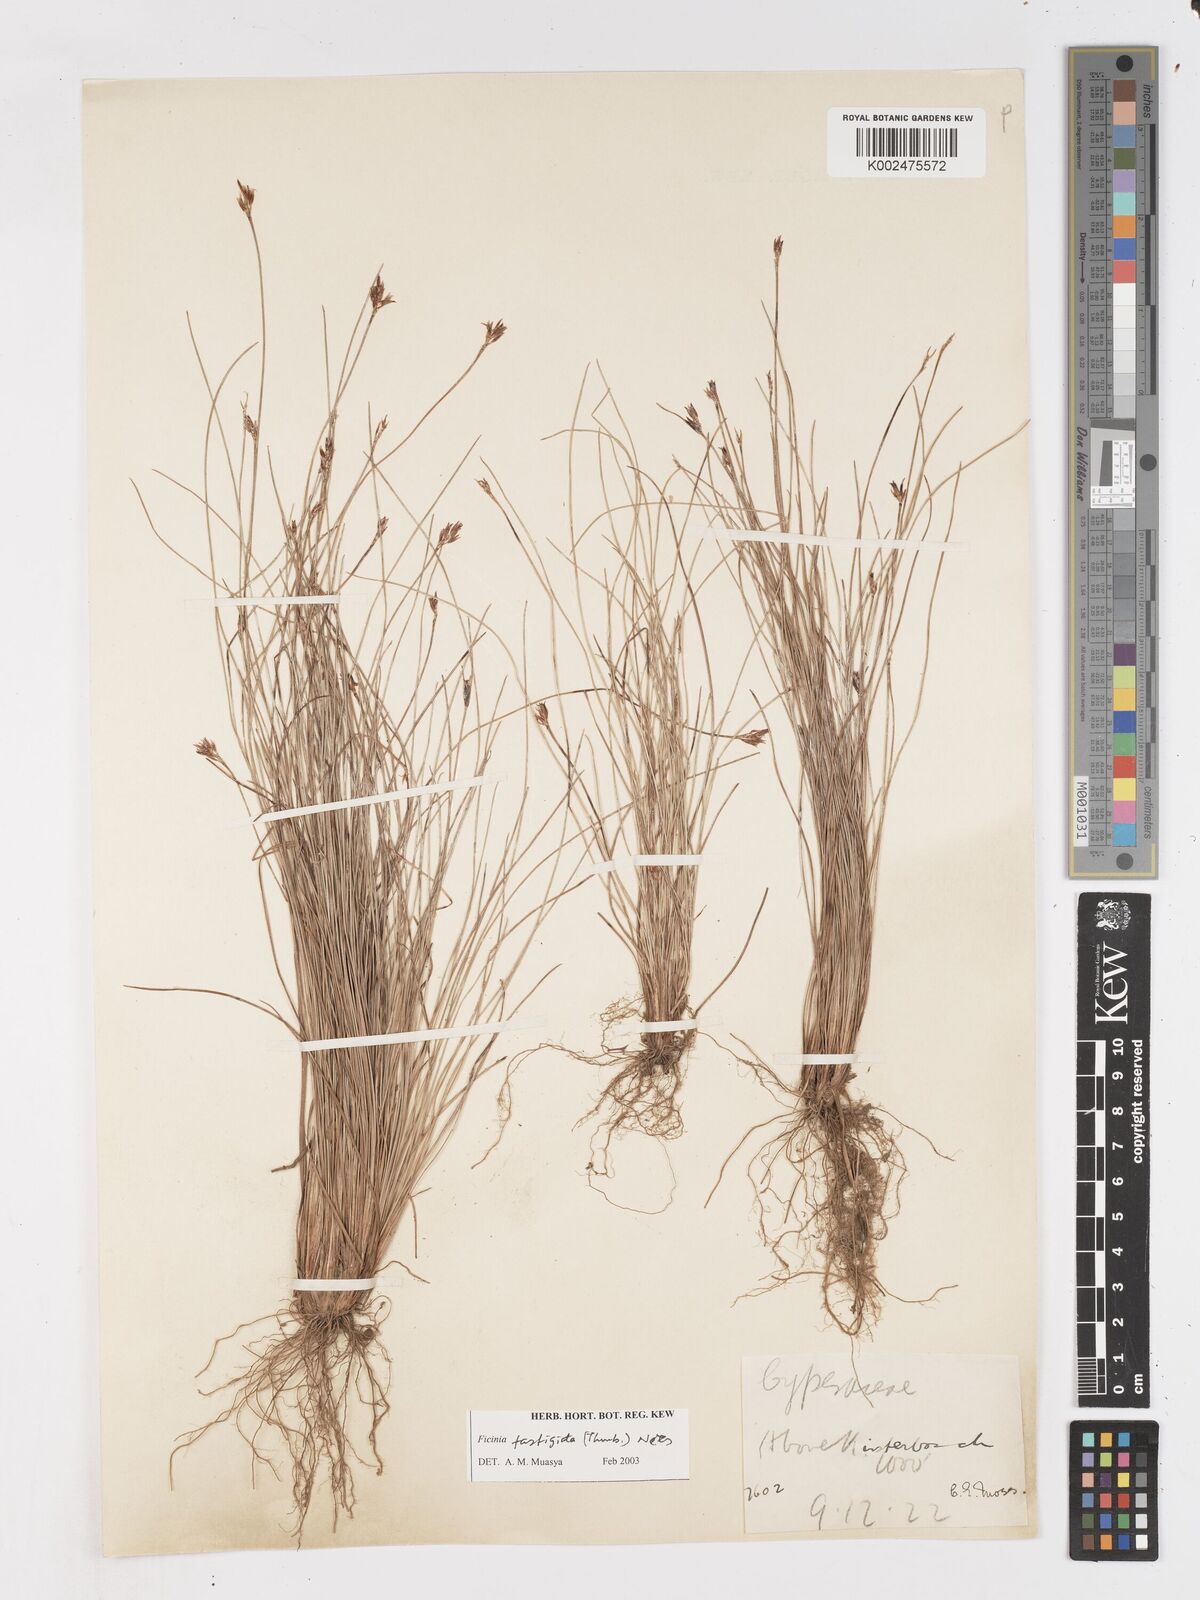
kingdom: Plantae
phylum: Tracheophyta
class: Liliopsida
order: Poales
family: Cyperaceae
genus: Ficinia
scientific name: Ficinia fastigiata
